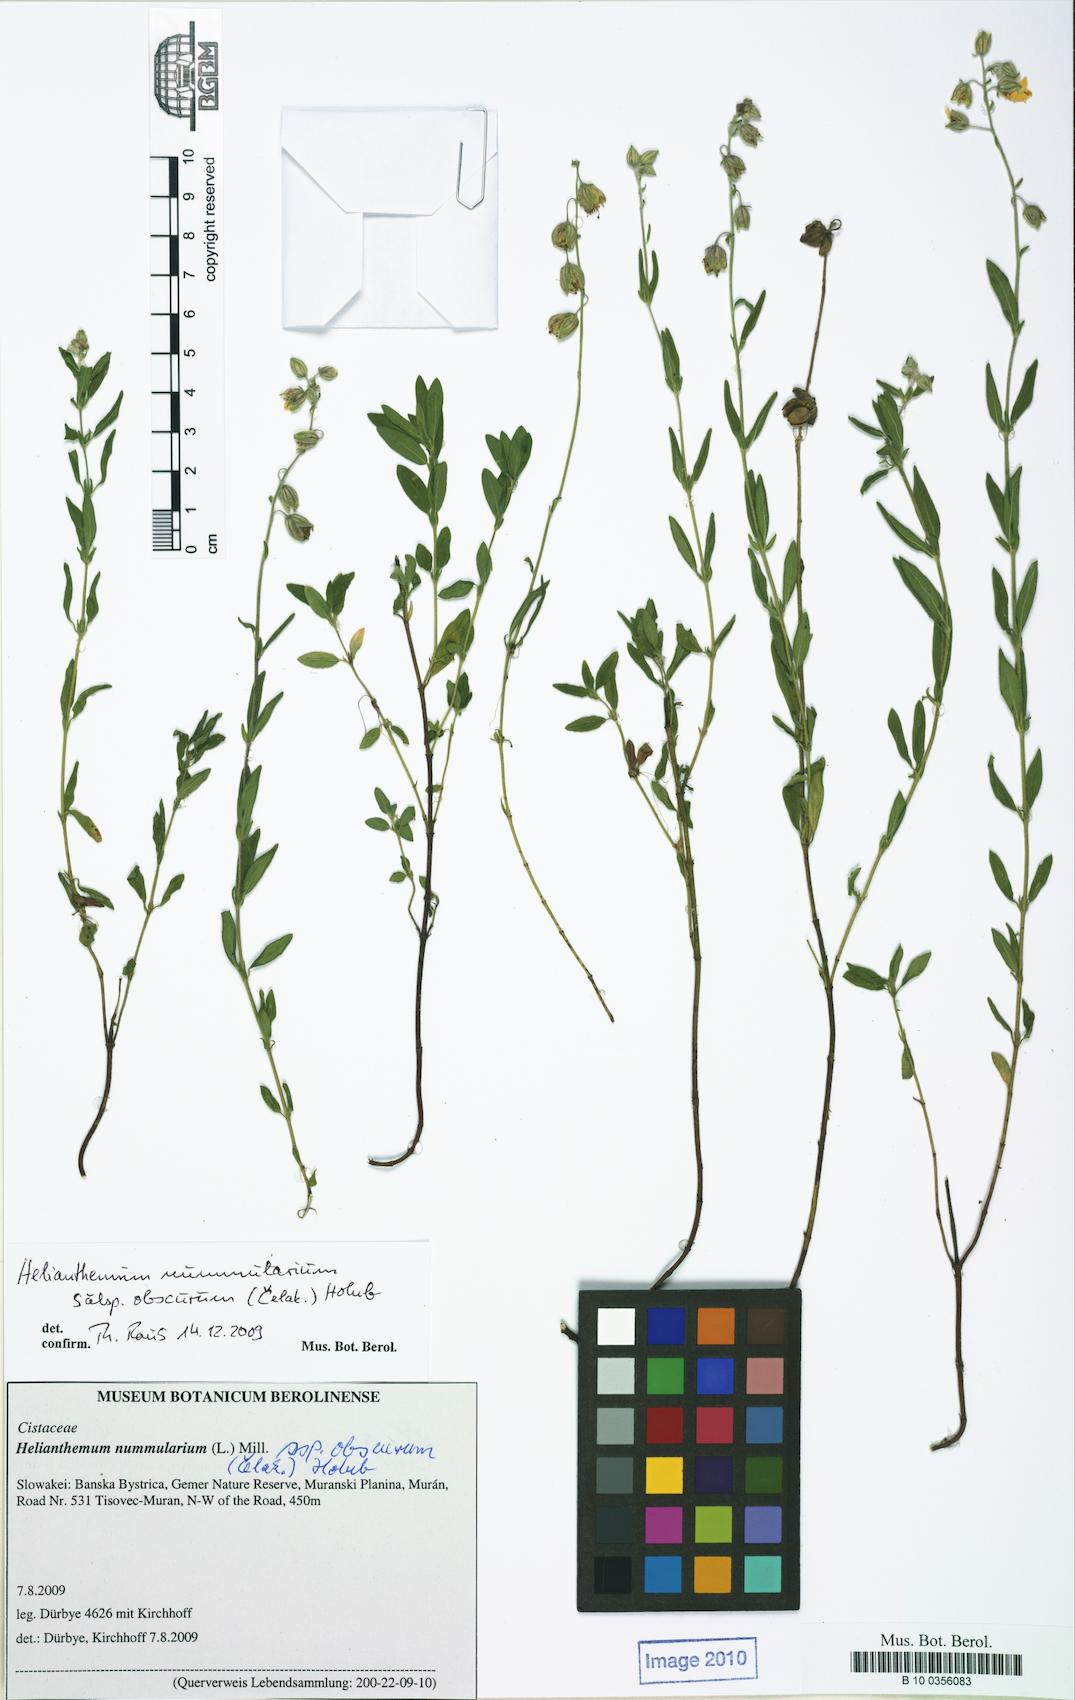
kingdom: Plantae
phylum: Tracheophyta
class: Magnoliopsida
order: Malvales
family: Cistaceae
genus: Helianthemum
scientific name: Helianthemum nummularium
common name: Common rock-rose
